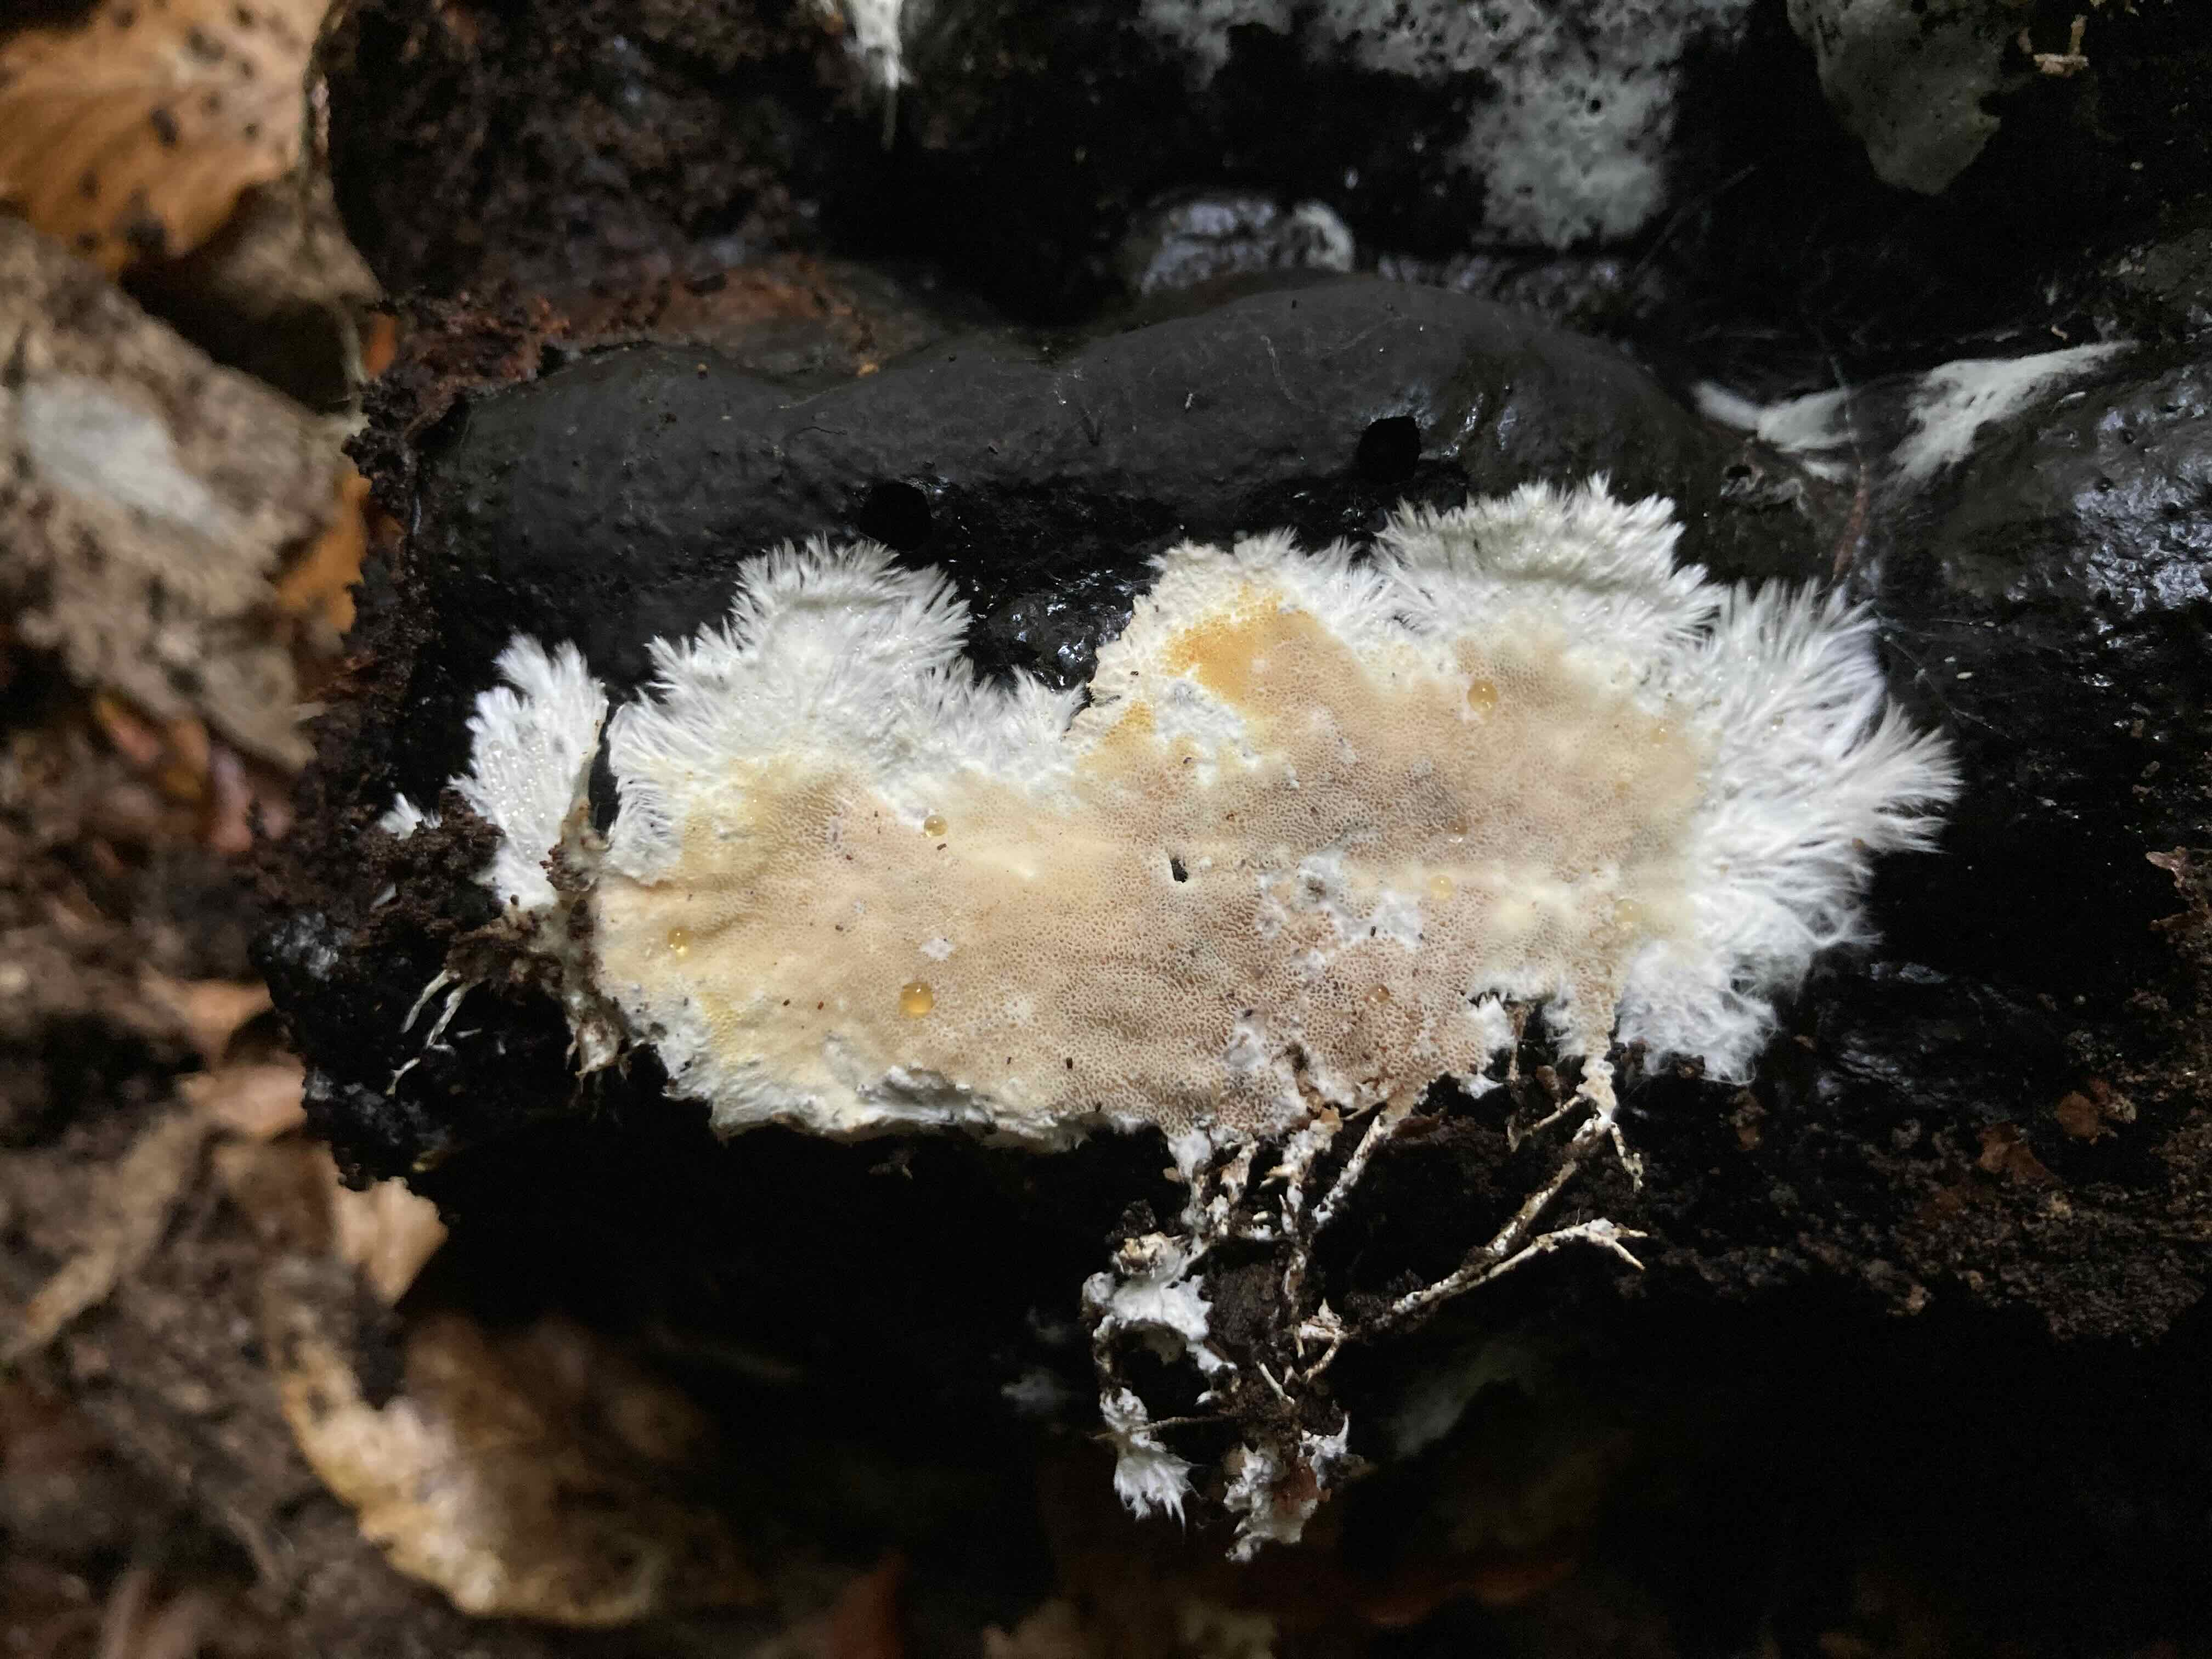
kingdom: Fungi
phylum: Basidiomycota
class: Agaricomycetes
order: Agaricales
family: Porotheleaceae
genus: Porotheleum
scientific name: Porotheleum fimbriatum
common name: poreskål
